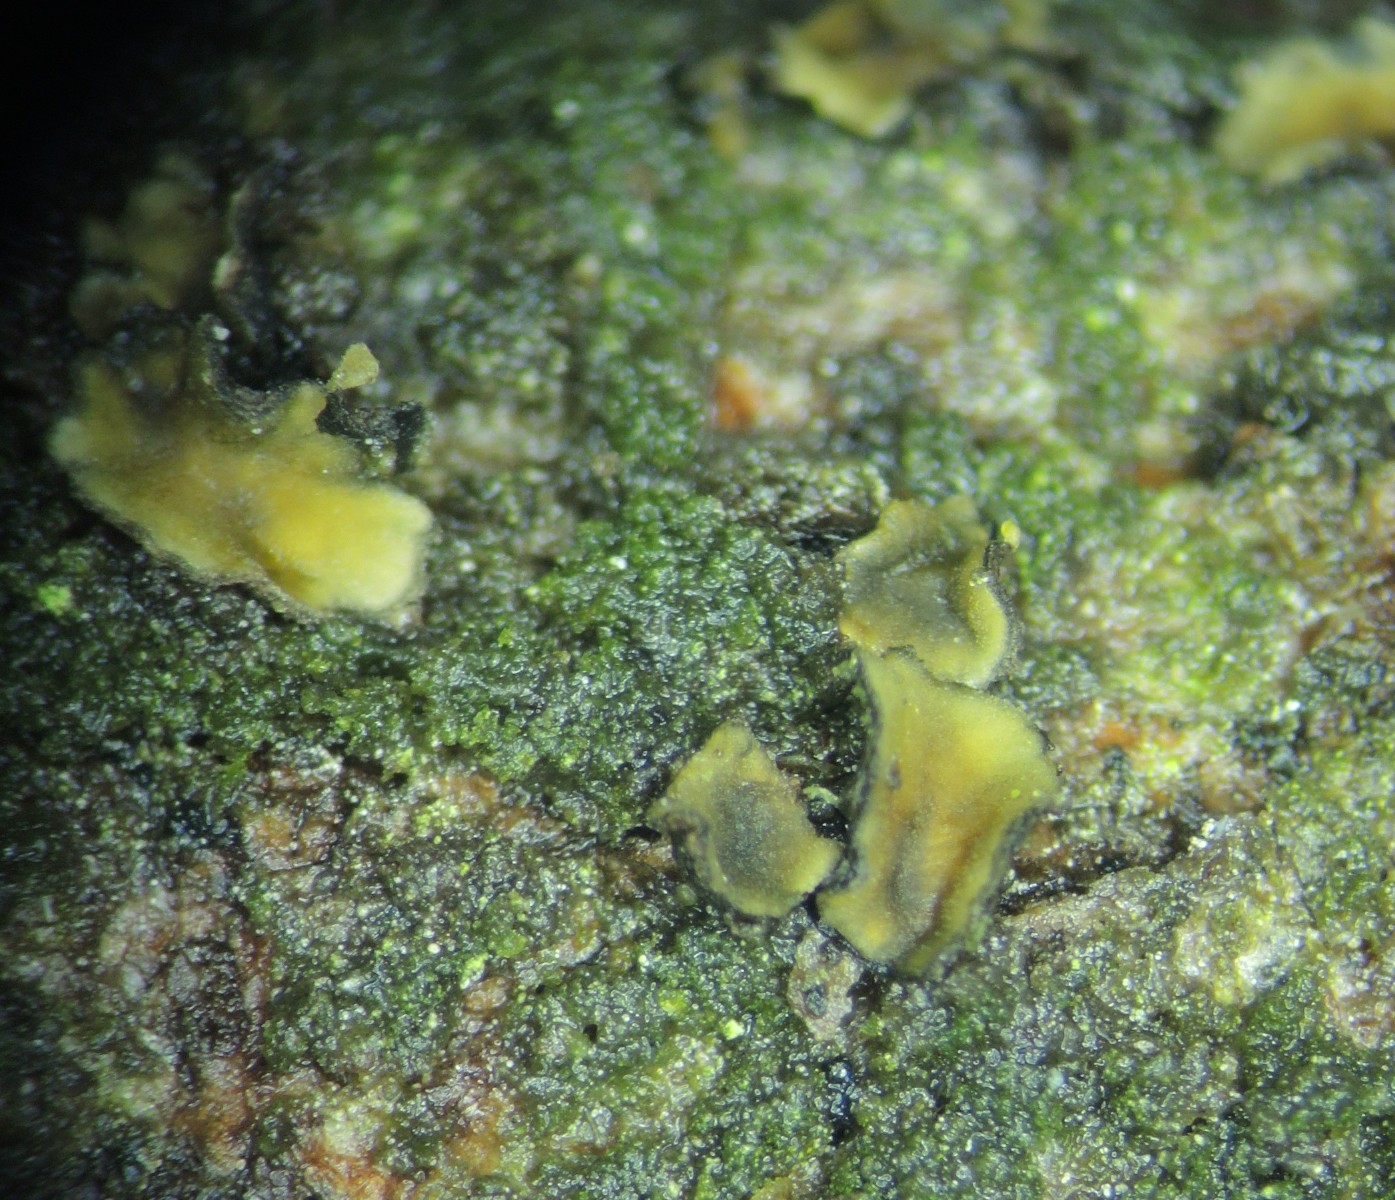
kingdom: Fungi
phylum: Ascomycota
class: Leotiomycetes
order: Helotiales
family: Cenangiaceae
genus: Cenangium
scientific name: Cenangium ferruginosum
